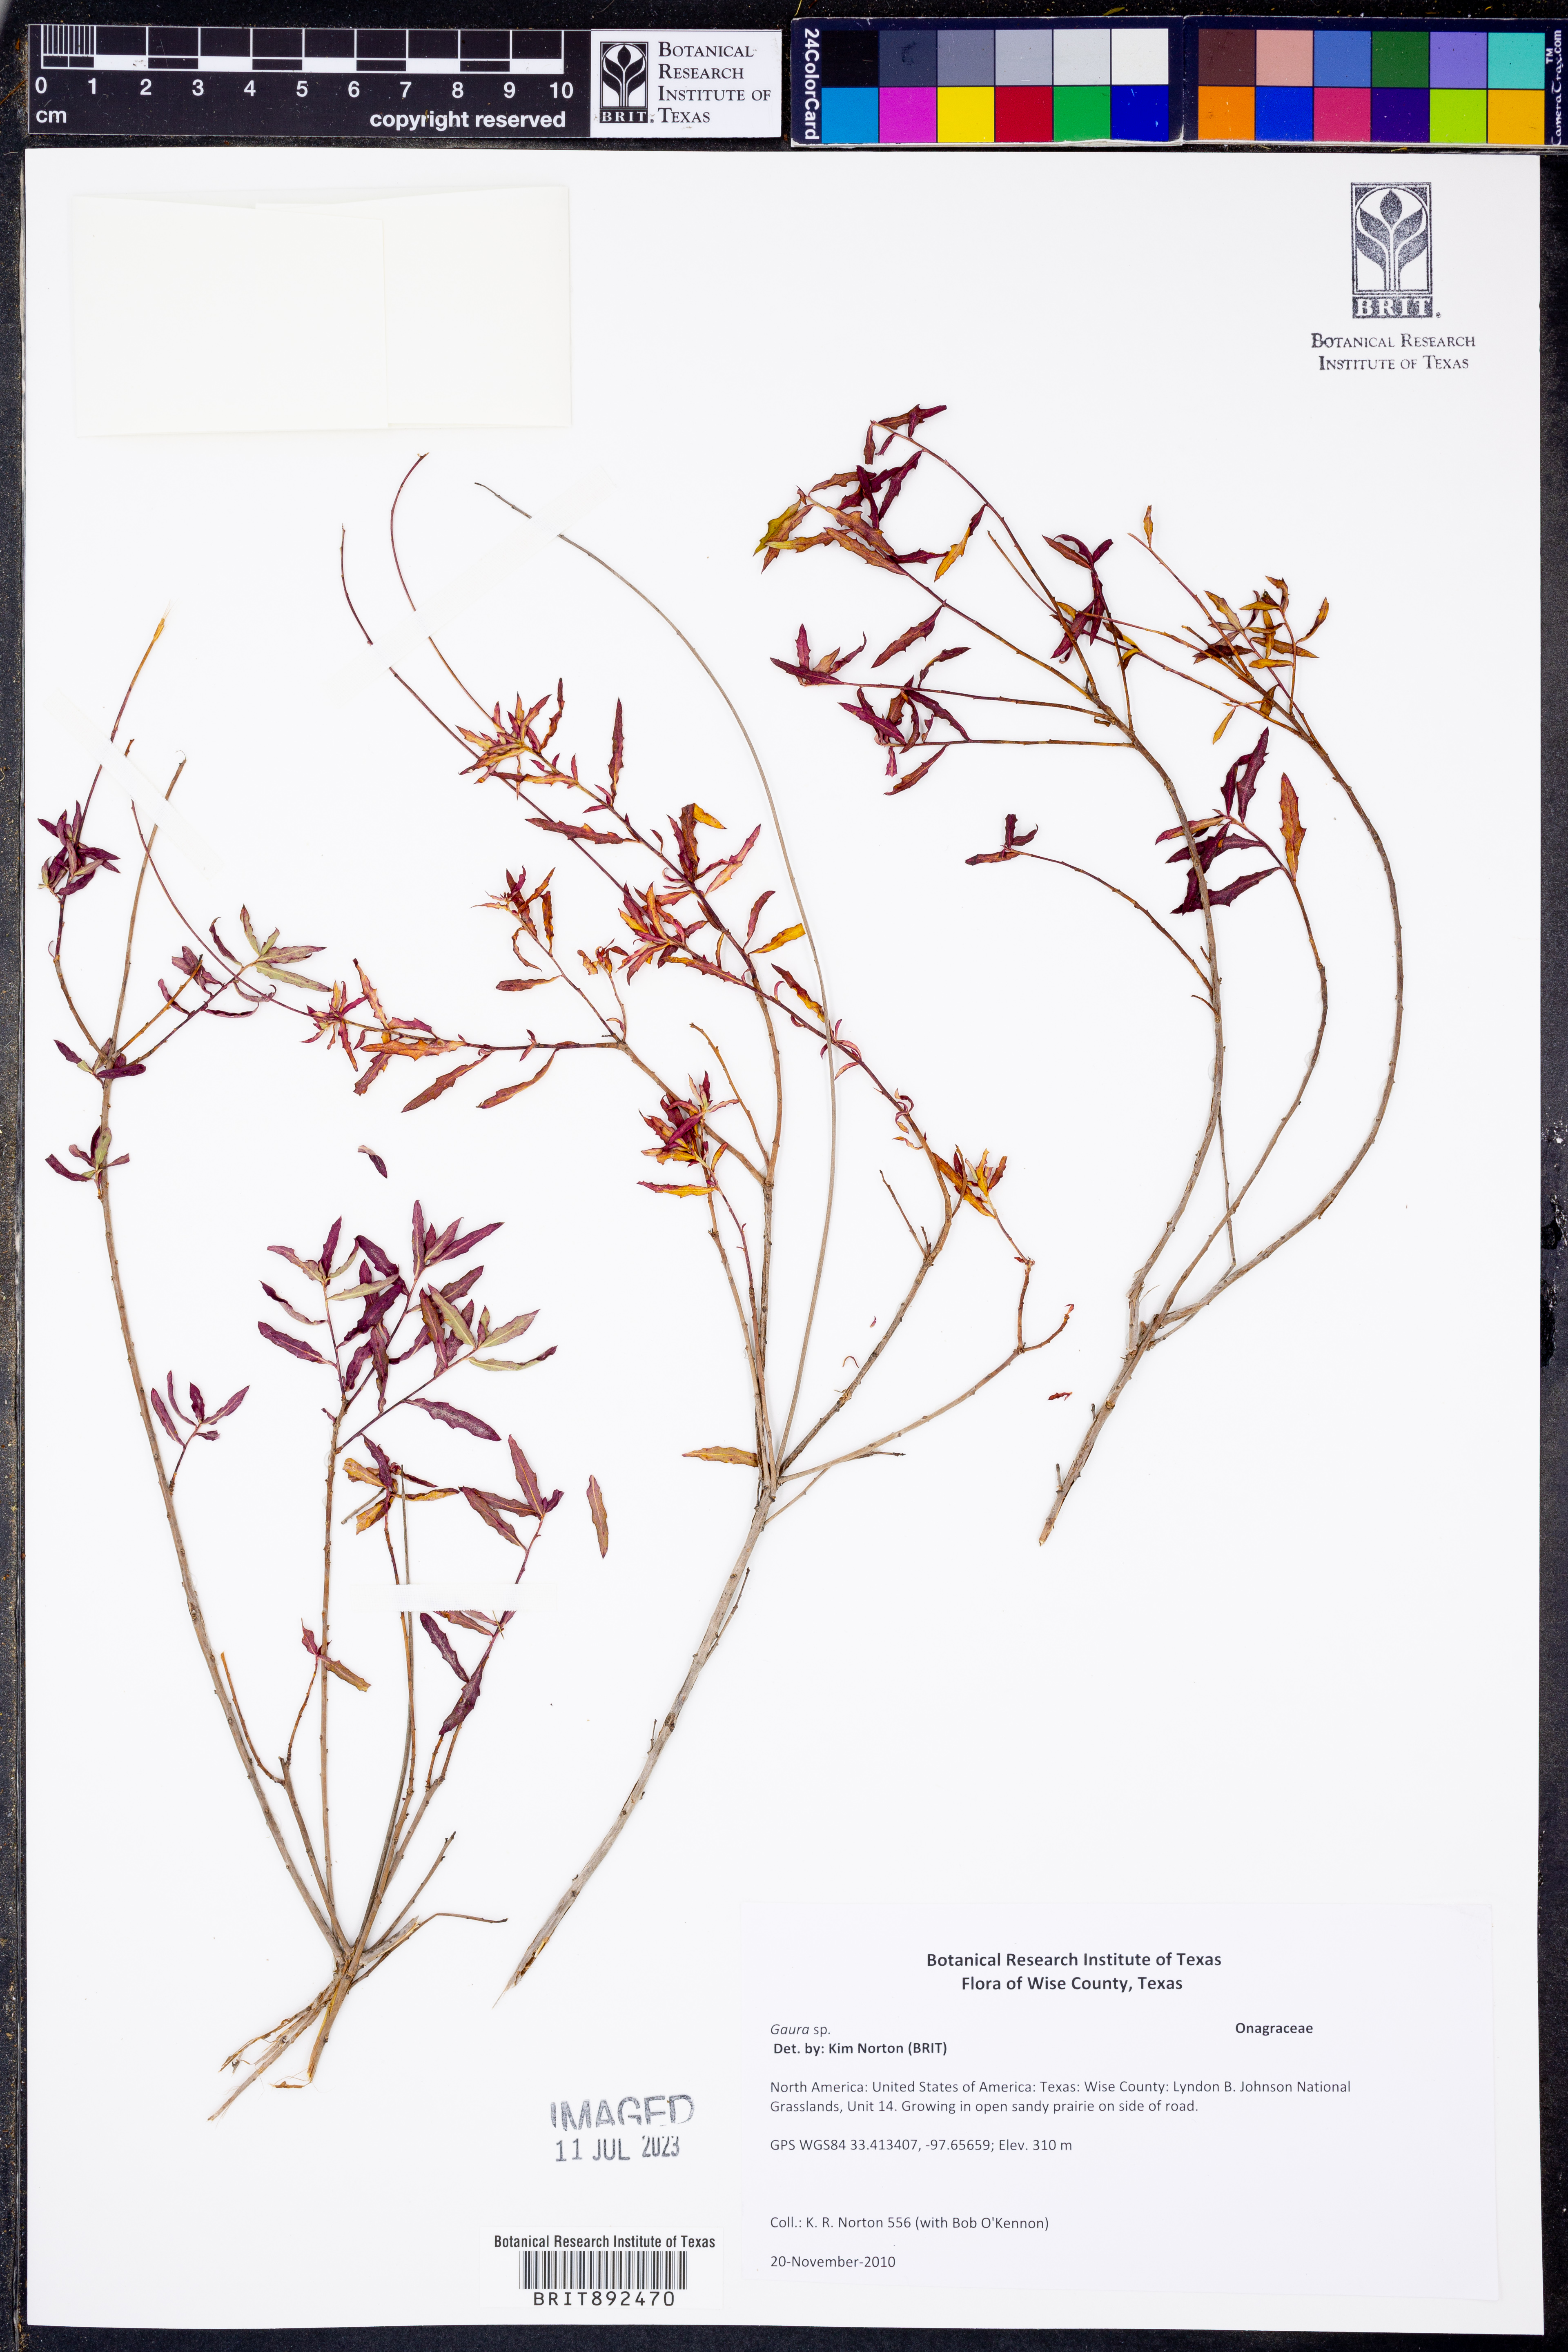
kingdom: Plantae
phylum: Tracheophyta
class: Magnoliopsida
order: Myrtales
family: Onagraceae
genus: Oenothera
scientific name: Oenothera
